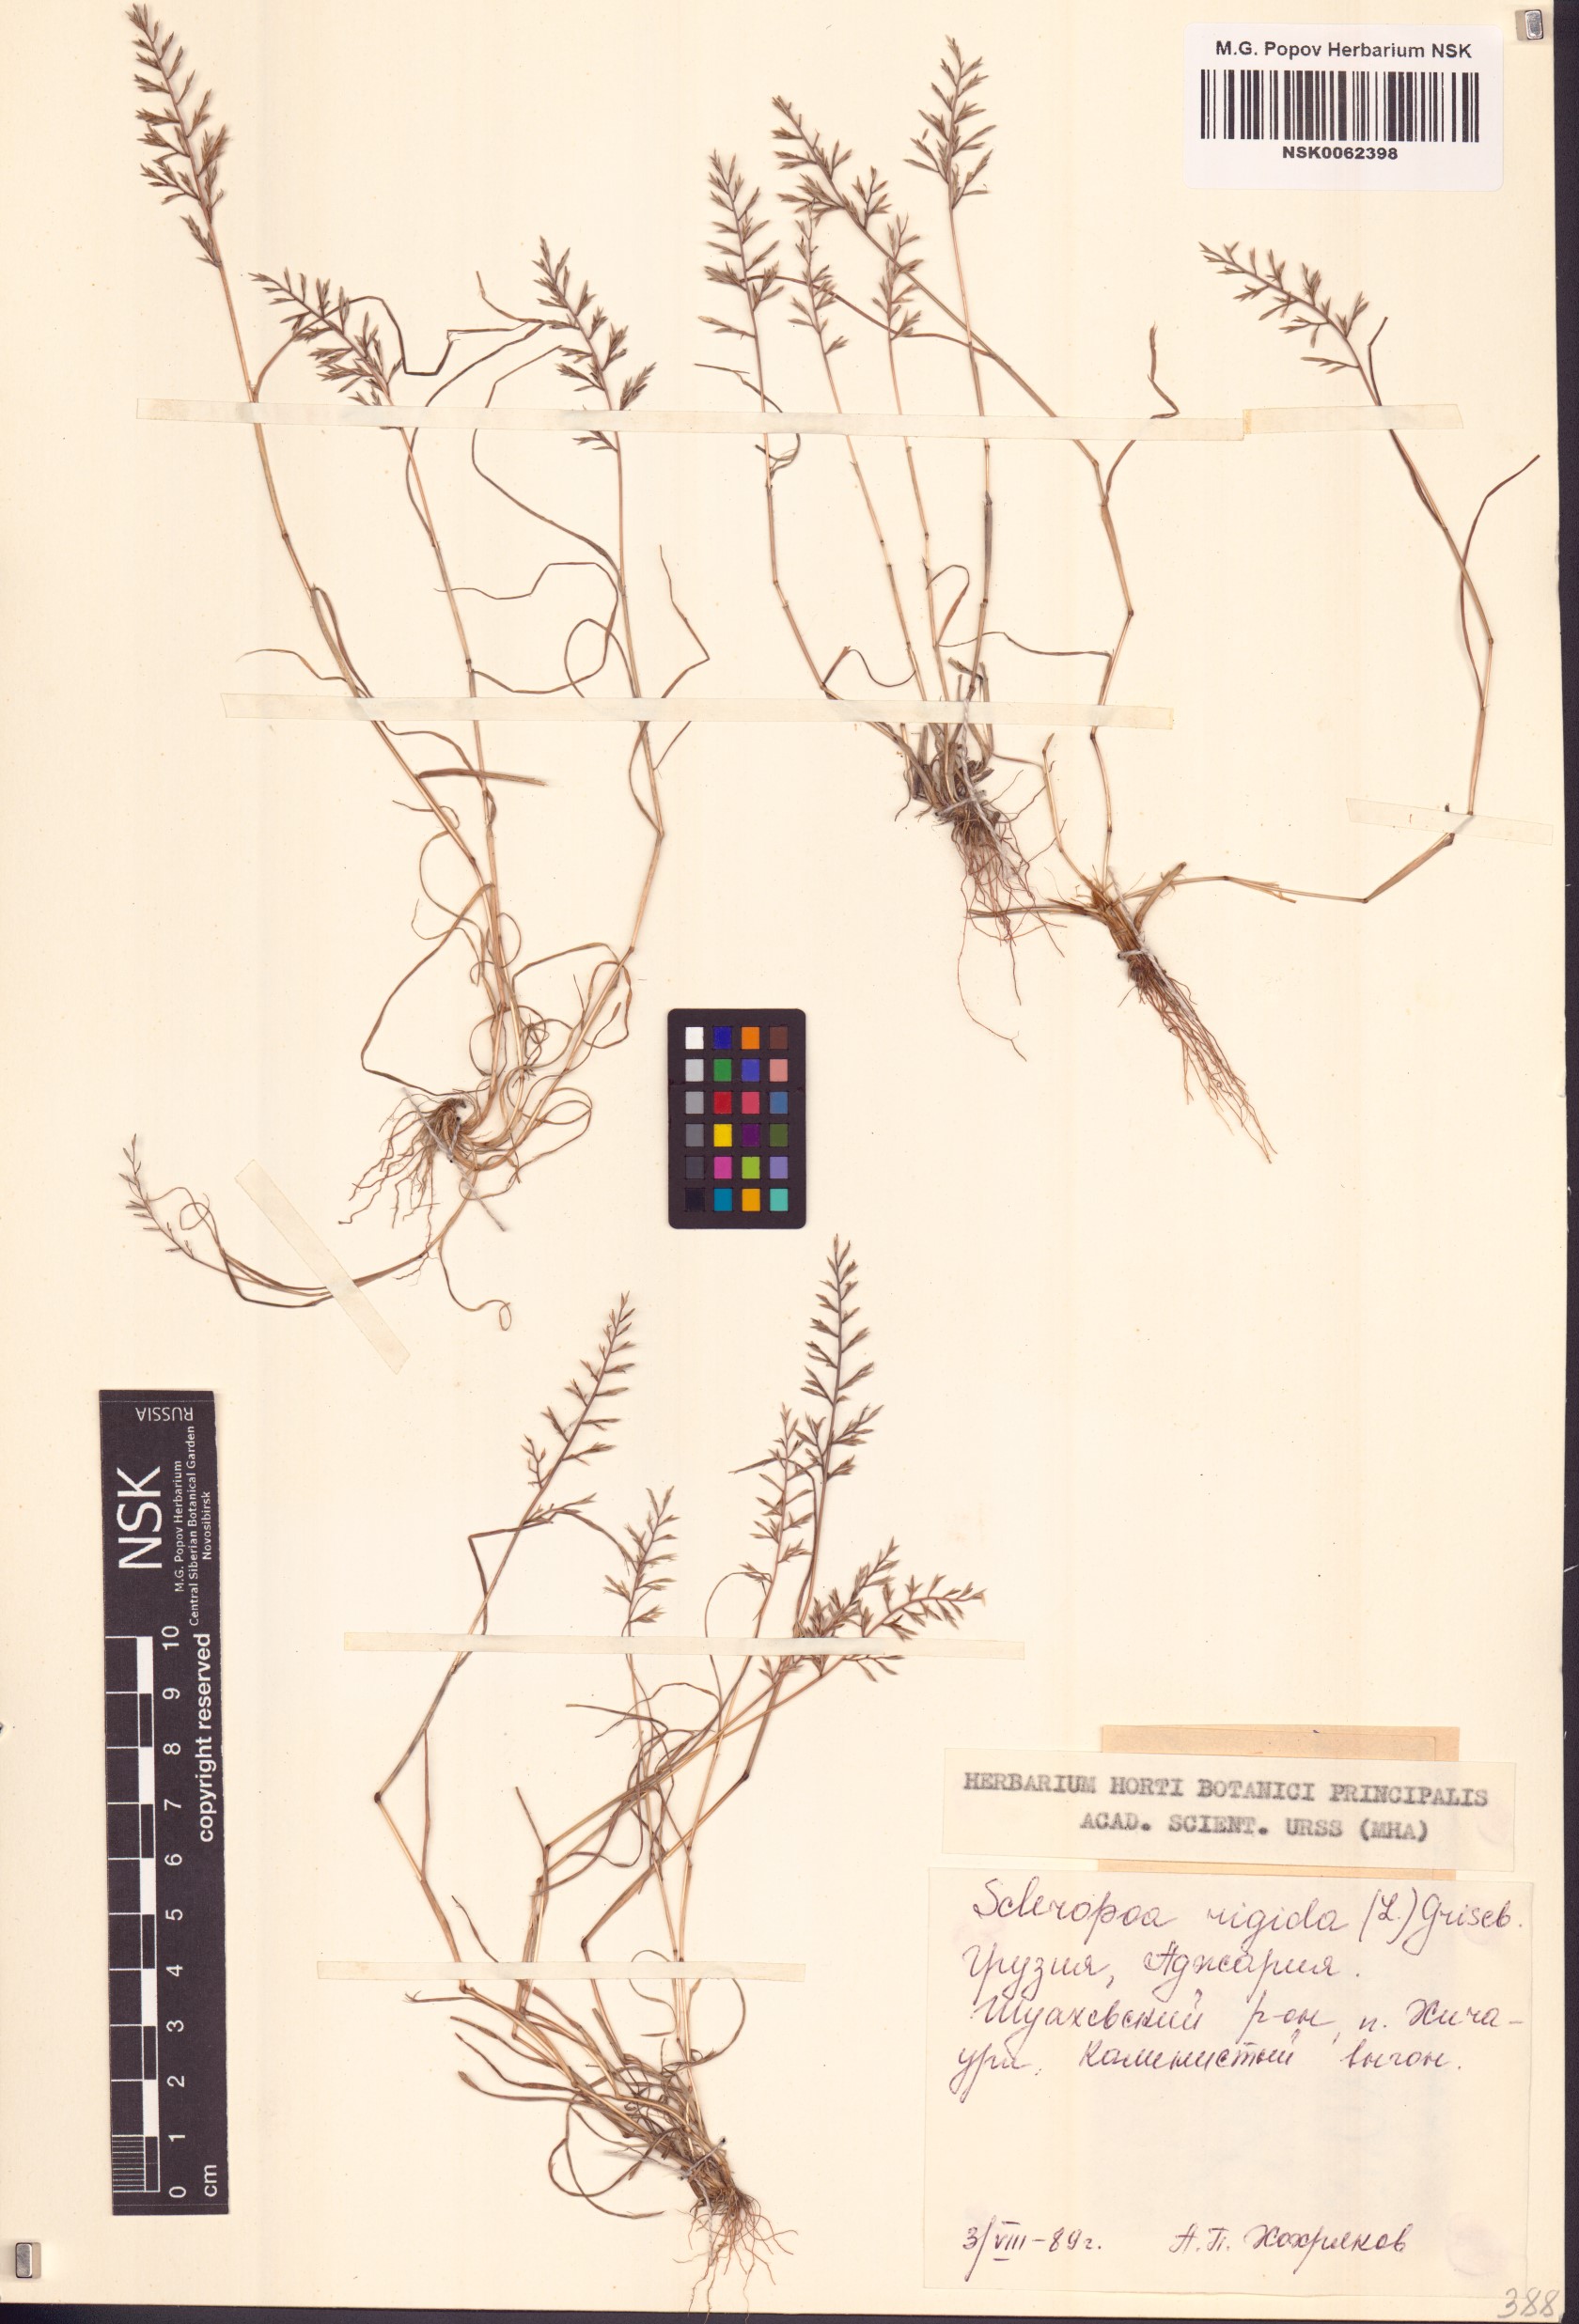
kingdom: Plantae
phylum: Tracheophyta
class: Liliopsida
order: Poales
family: Poaceae
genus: Catapodium
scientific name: Catapodium rigidum
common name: Fern-grass
